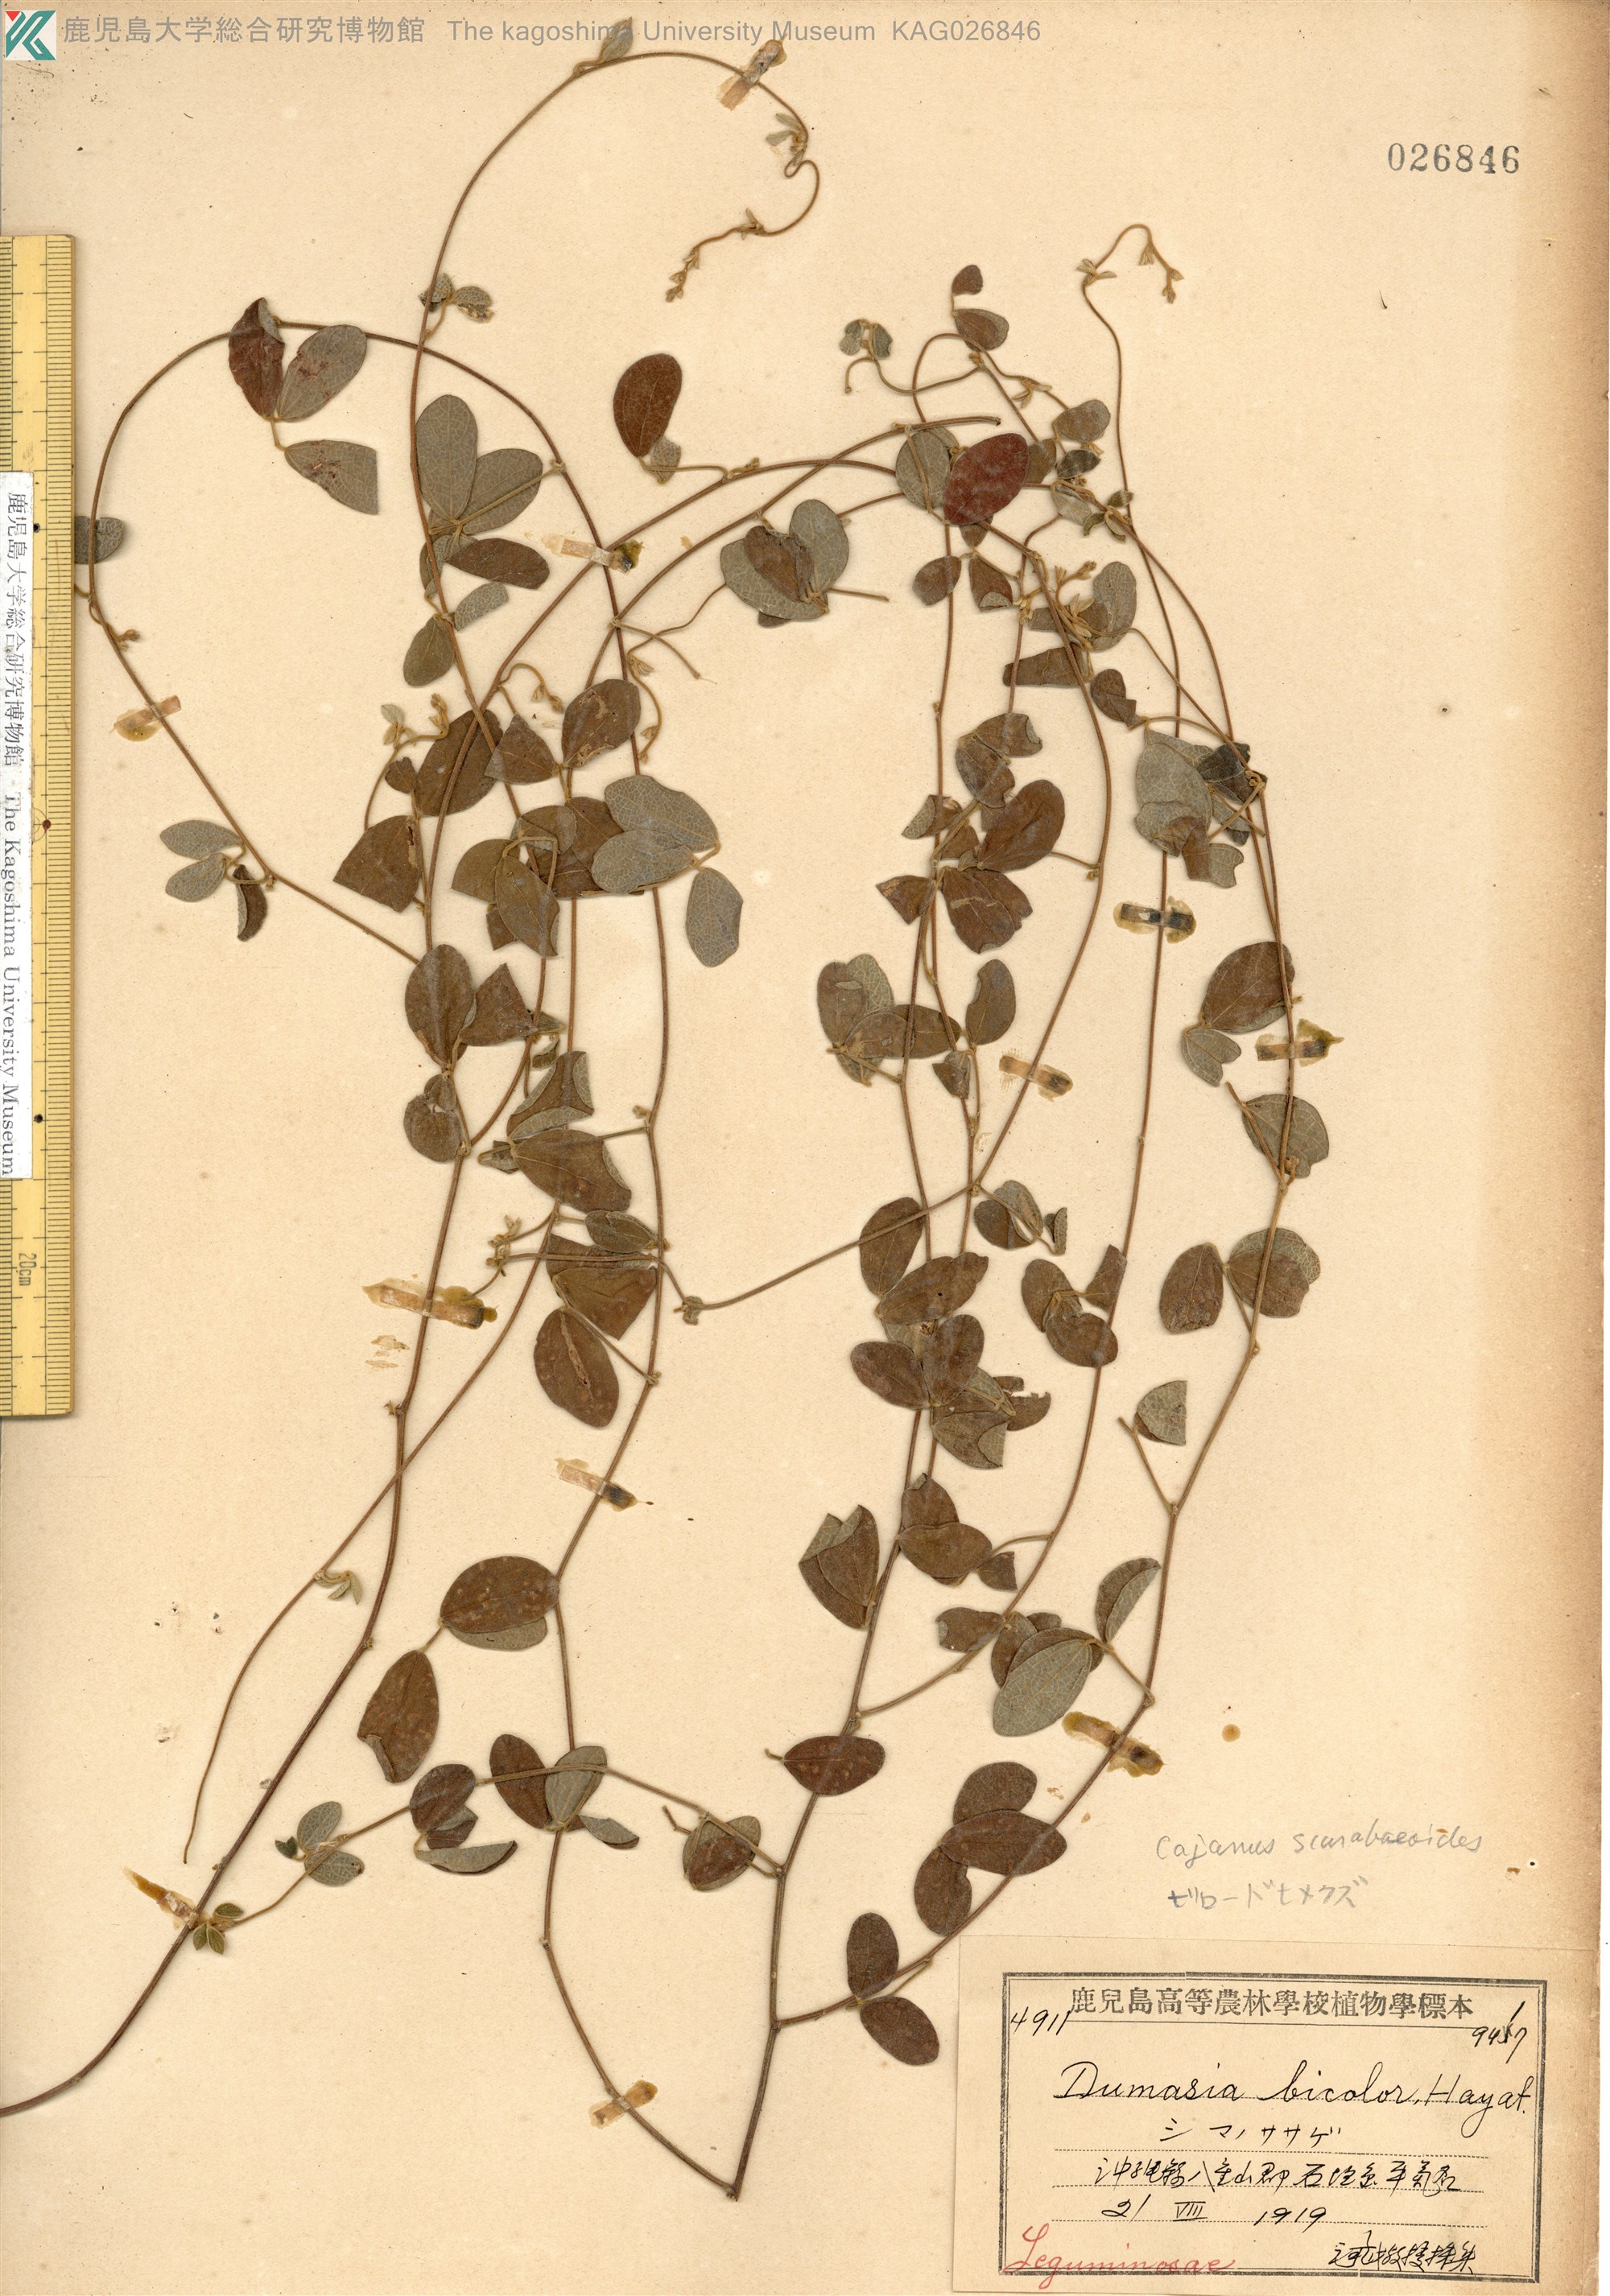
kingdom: Plantae
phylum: Tracheophyta
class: Magnoliopsida
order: Fabales
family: Fabaceae
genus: Cajanus
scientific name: Cajanus scarabaeoides
